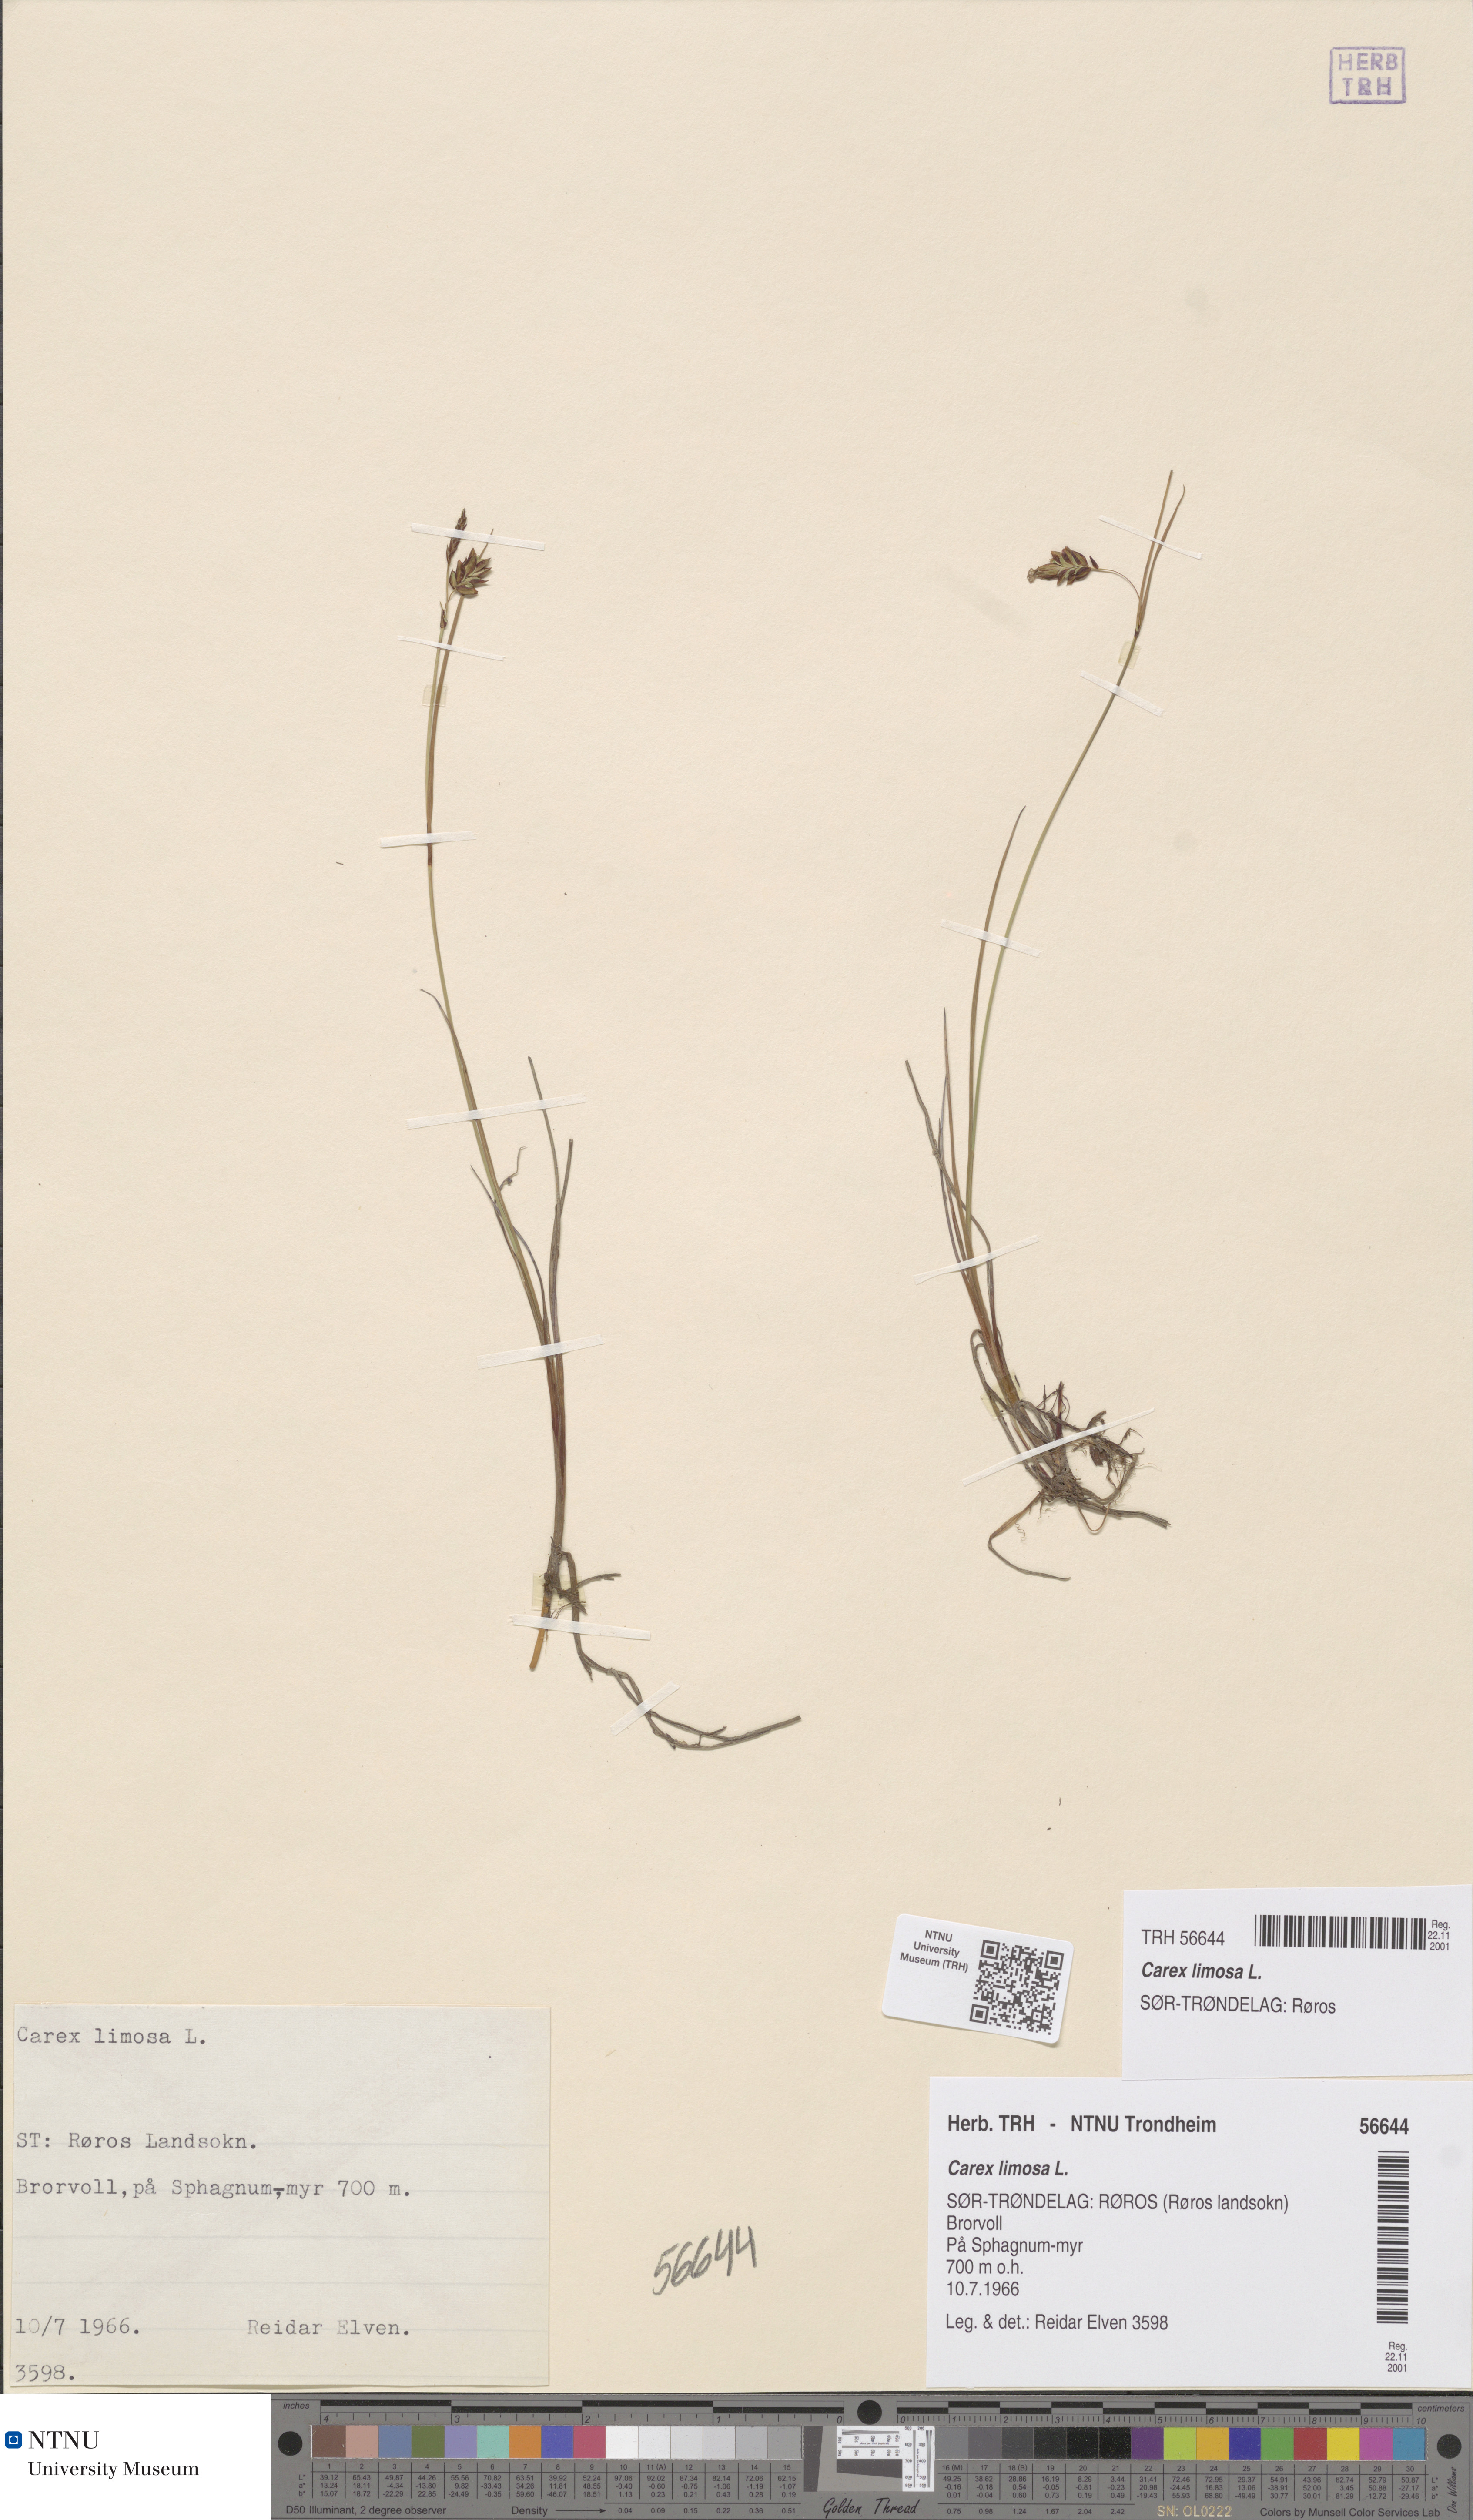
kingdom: Plantae
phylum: Tracheophyta
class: Liliopsida
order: Poales
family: Cyperaceae
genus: Carex
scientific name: Carex limosa
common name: Bog sedge
